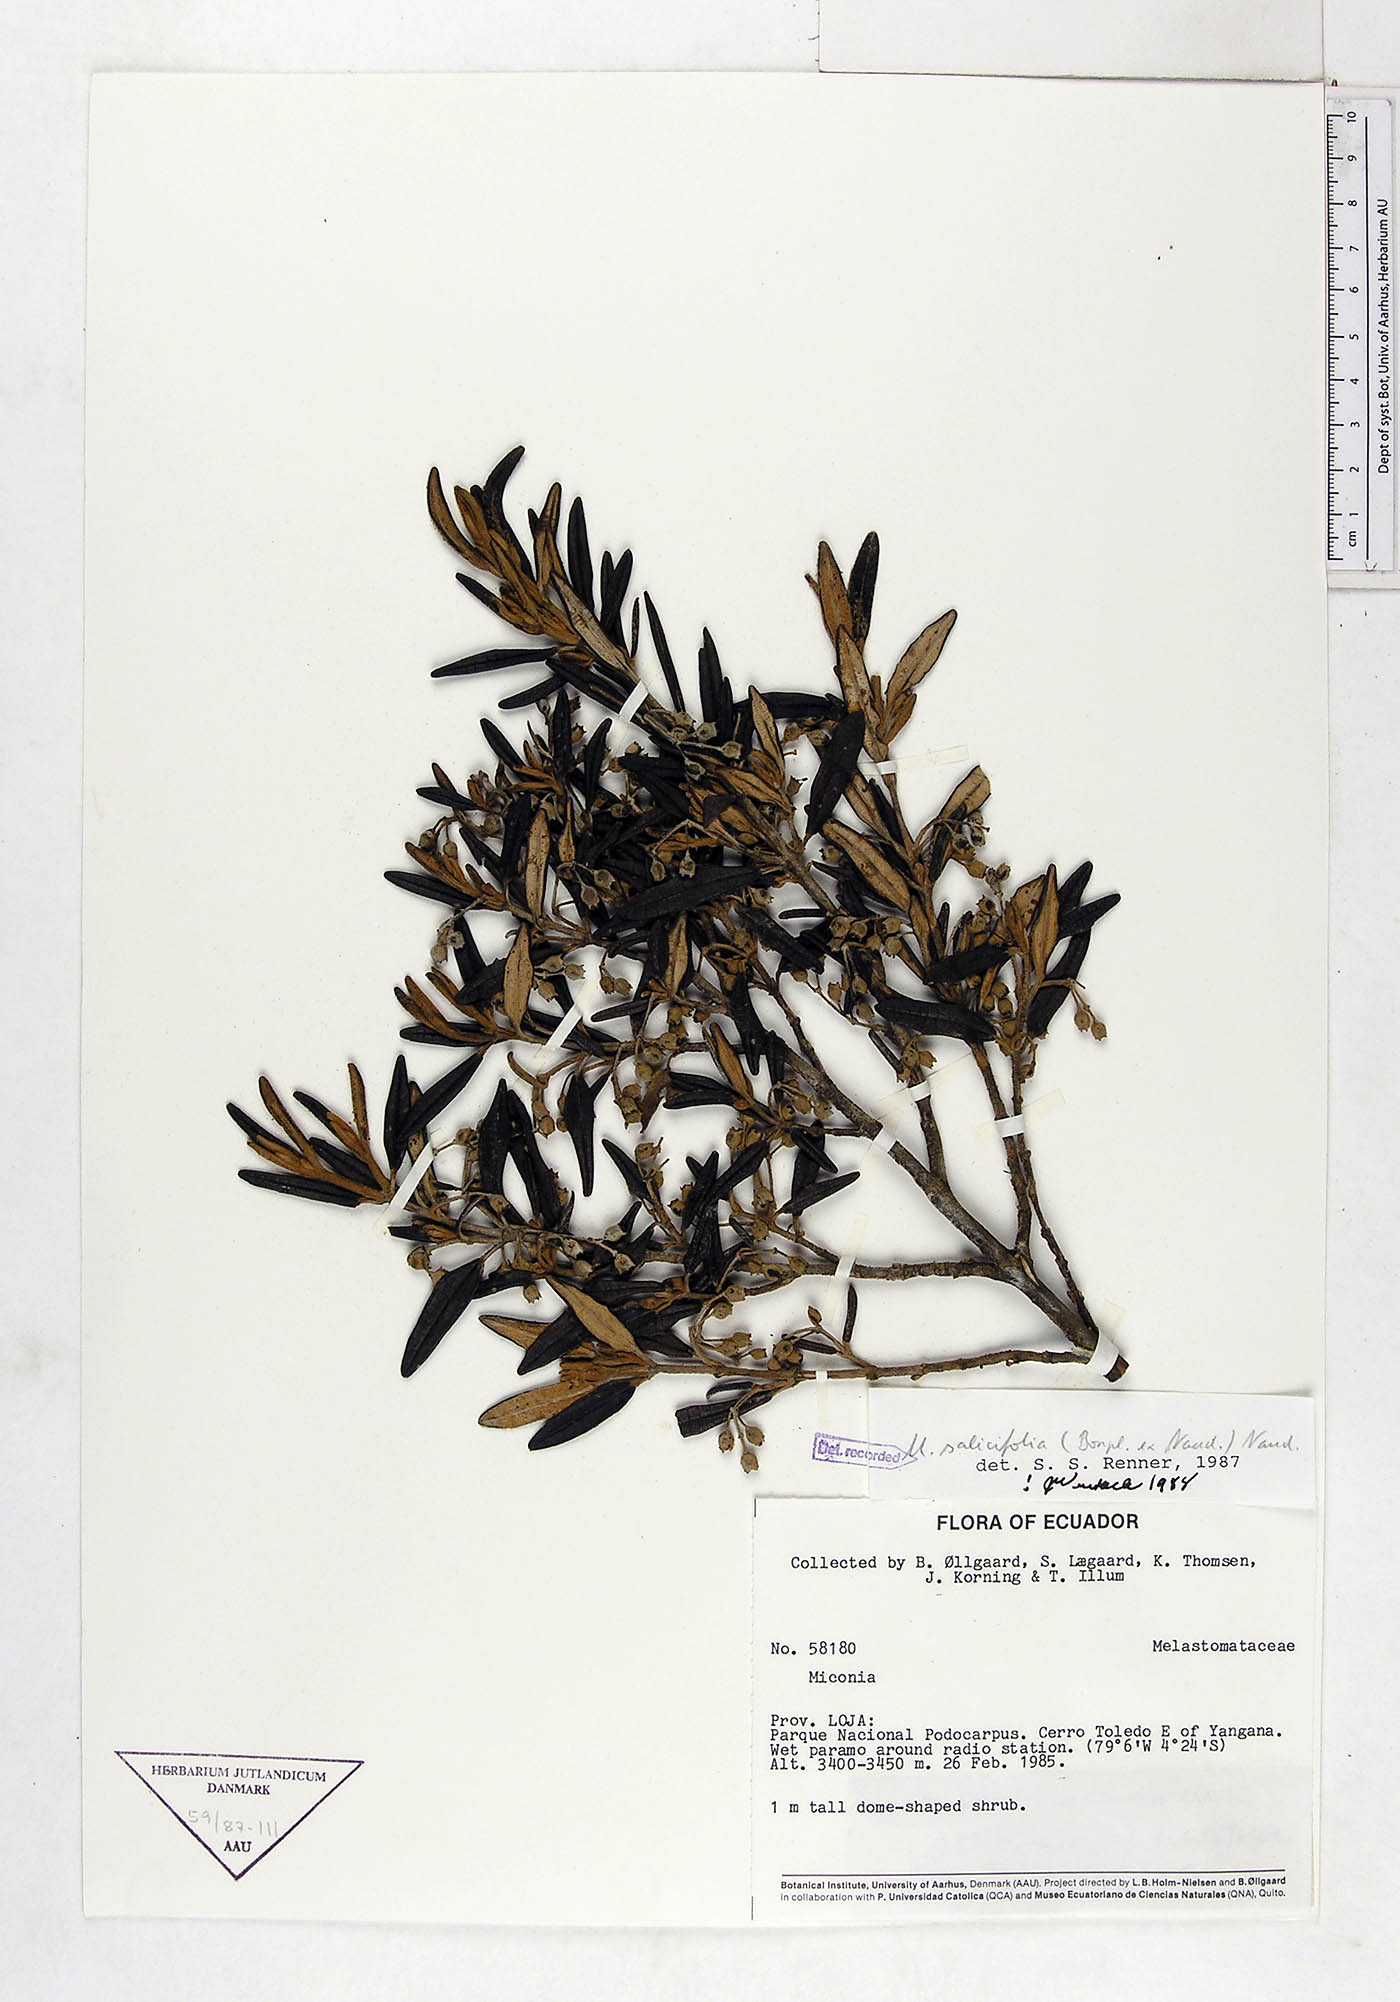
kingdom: Plantae
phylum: Tracheophyta
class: Magnoliopsida
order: Myrtales
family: Melastomataceae
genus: Miconia
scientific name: Miconia salicifolia
